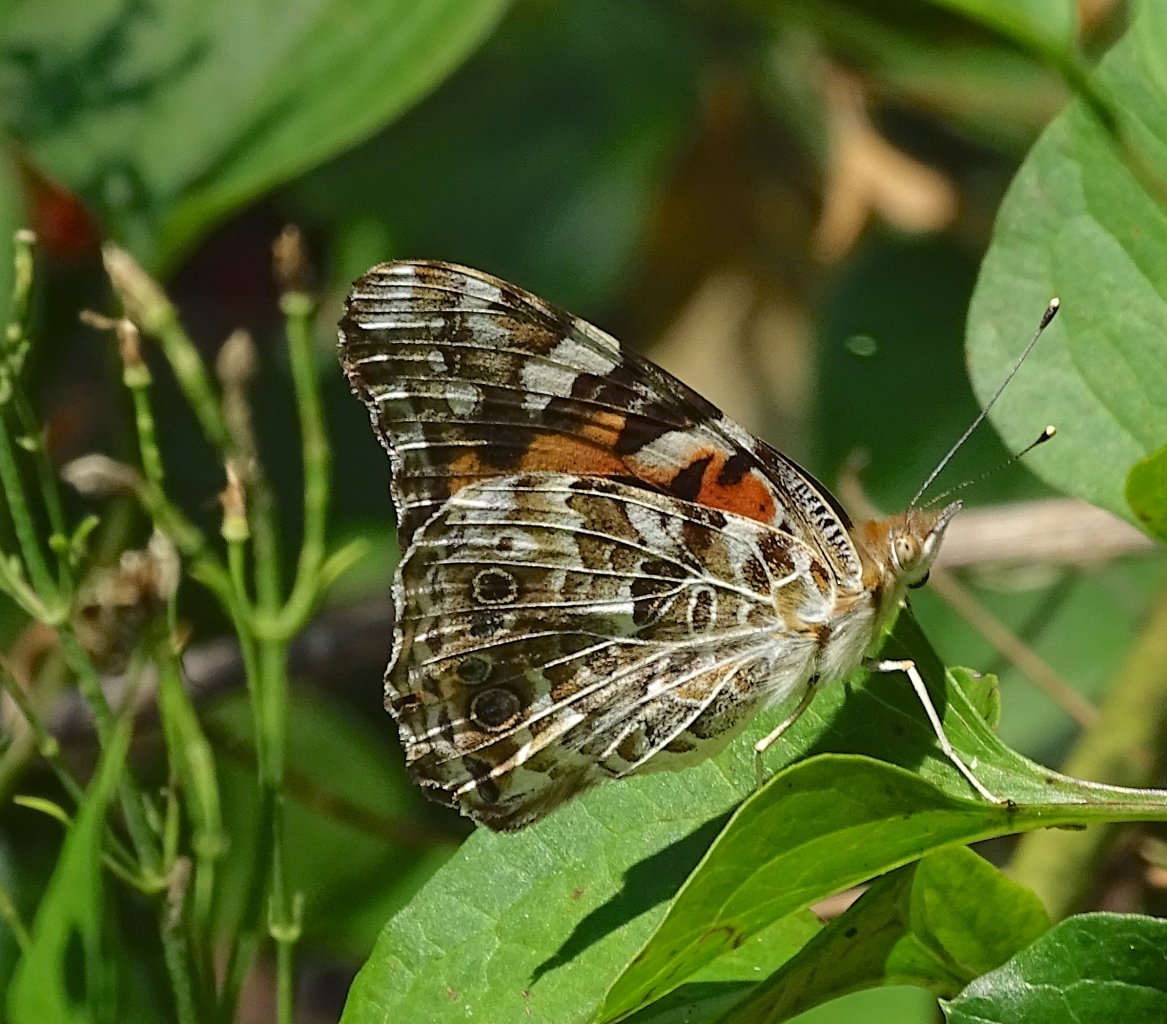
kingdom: Animalia
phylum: Arthropoda
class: Insecta
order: Lepidoptera
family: Nymphalidae
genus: Vanessa
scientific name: Vanessa cardui
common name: Painted Lady
